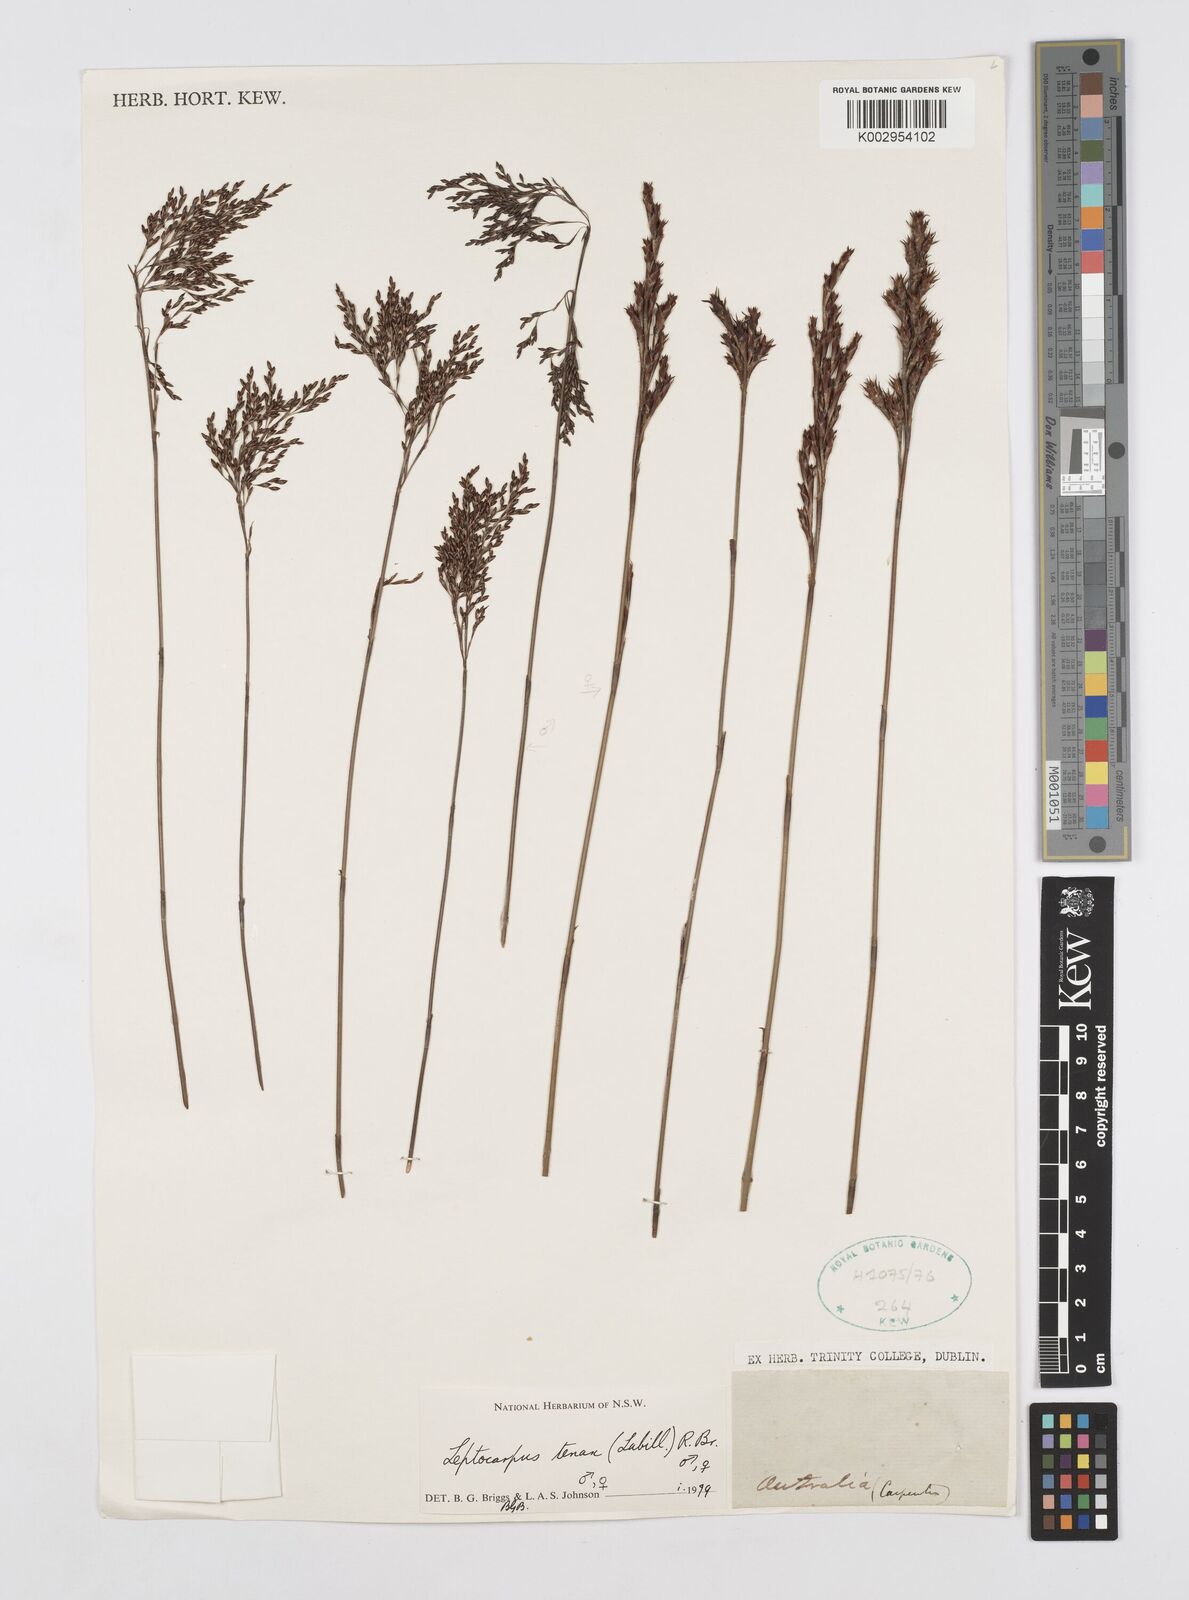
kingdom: Plantae
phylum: Tracheophyta
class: Liliopsida
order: Poales
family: Restionaceae
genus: Leptocarpus
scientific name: Leptocarpus tenax
